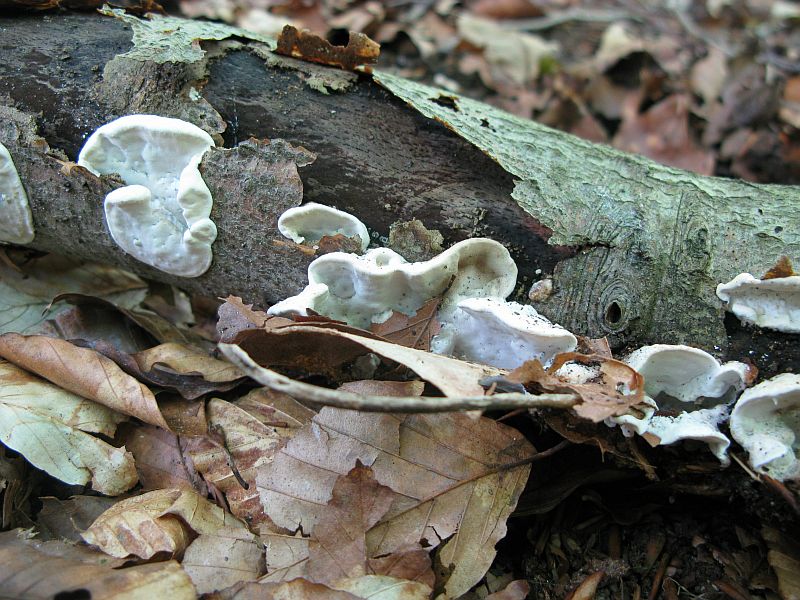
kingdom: Fungi
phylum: Basidiomycota
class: Agaricomycetes
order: Polyporales
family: Polyporaceae
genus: Cyanosporus
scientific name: Cyanosporus alni
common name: blegblå kødporesvamp
